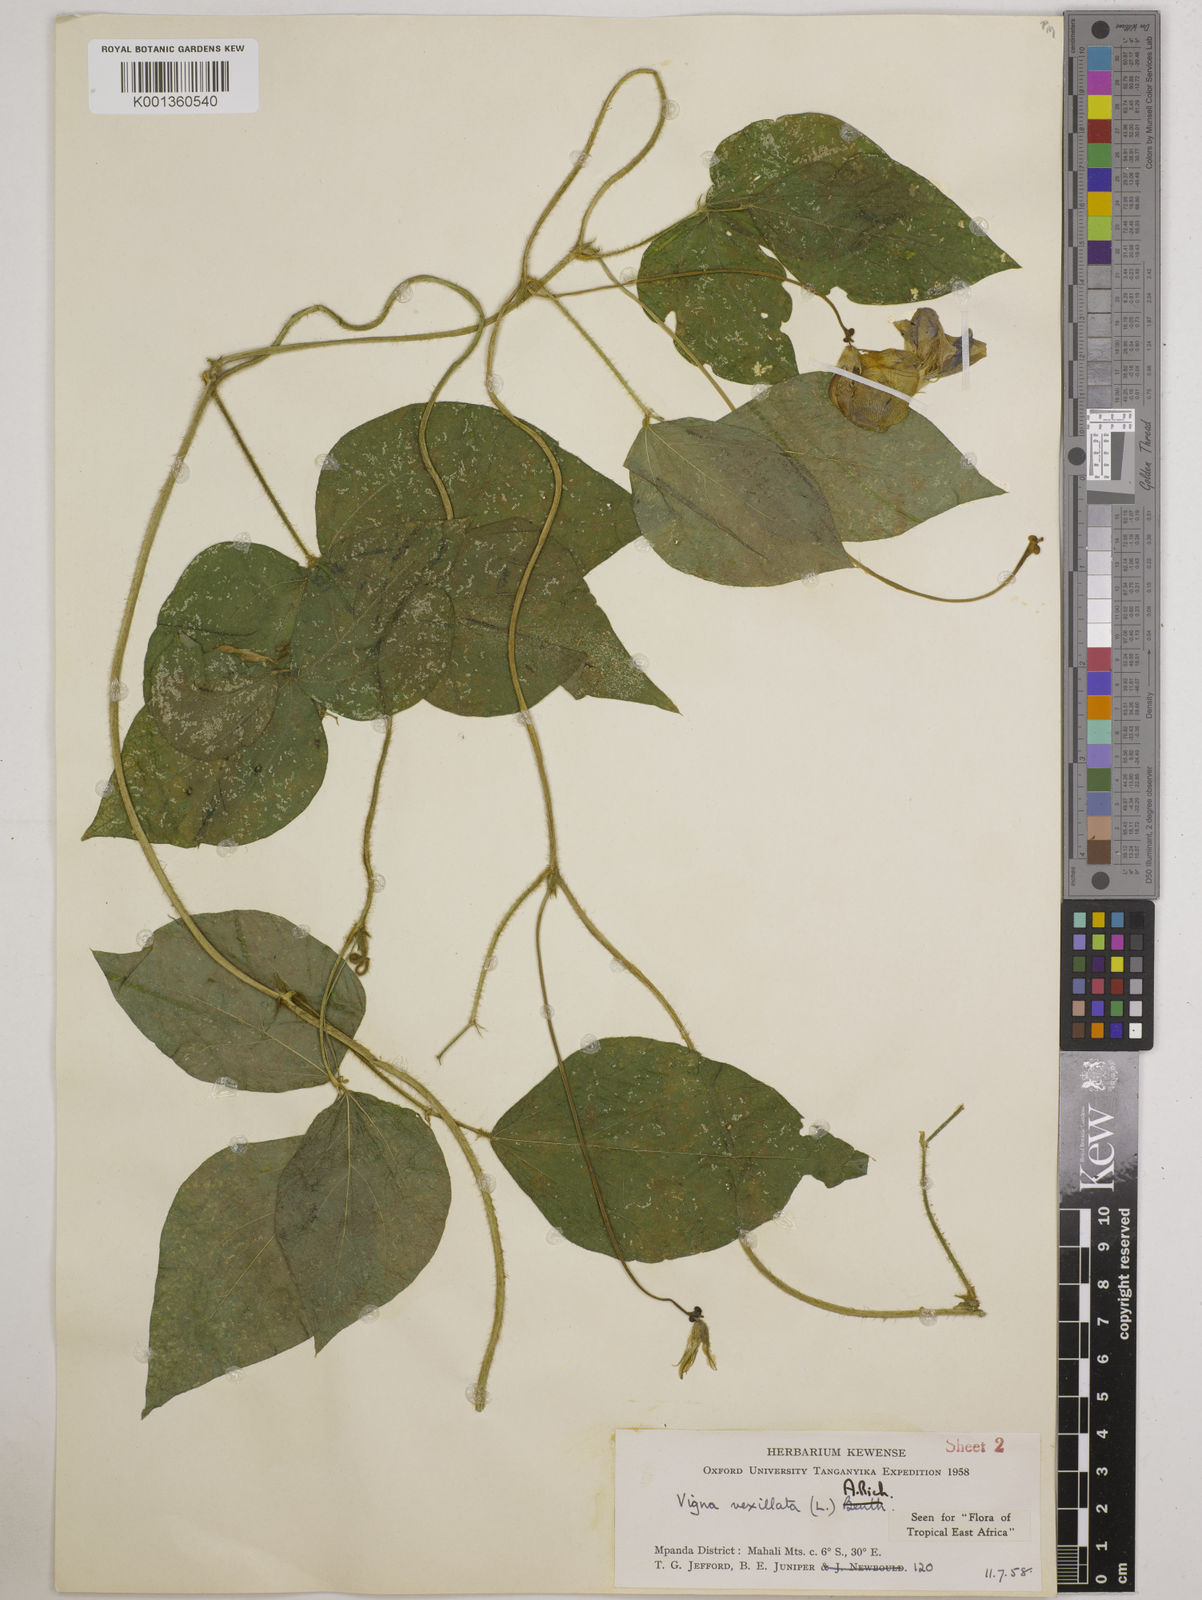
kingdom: Plantae
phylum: Tracheophyta
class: Magnoliopsida
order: Fabales
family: Fabaceae
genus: Vigna
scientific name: Vigna vexillata
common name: Zombi pea
